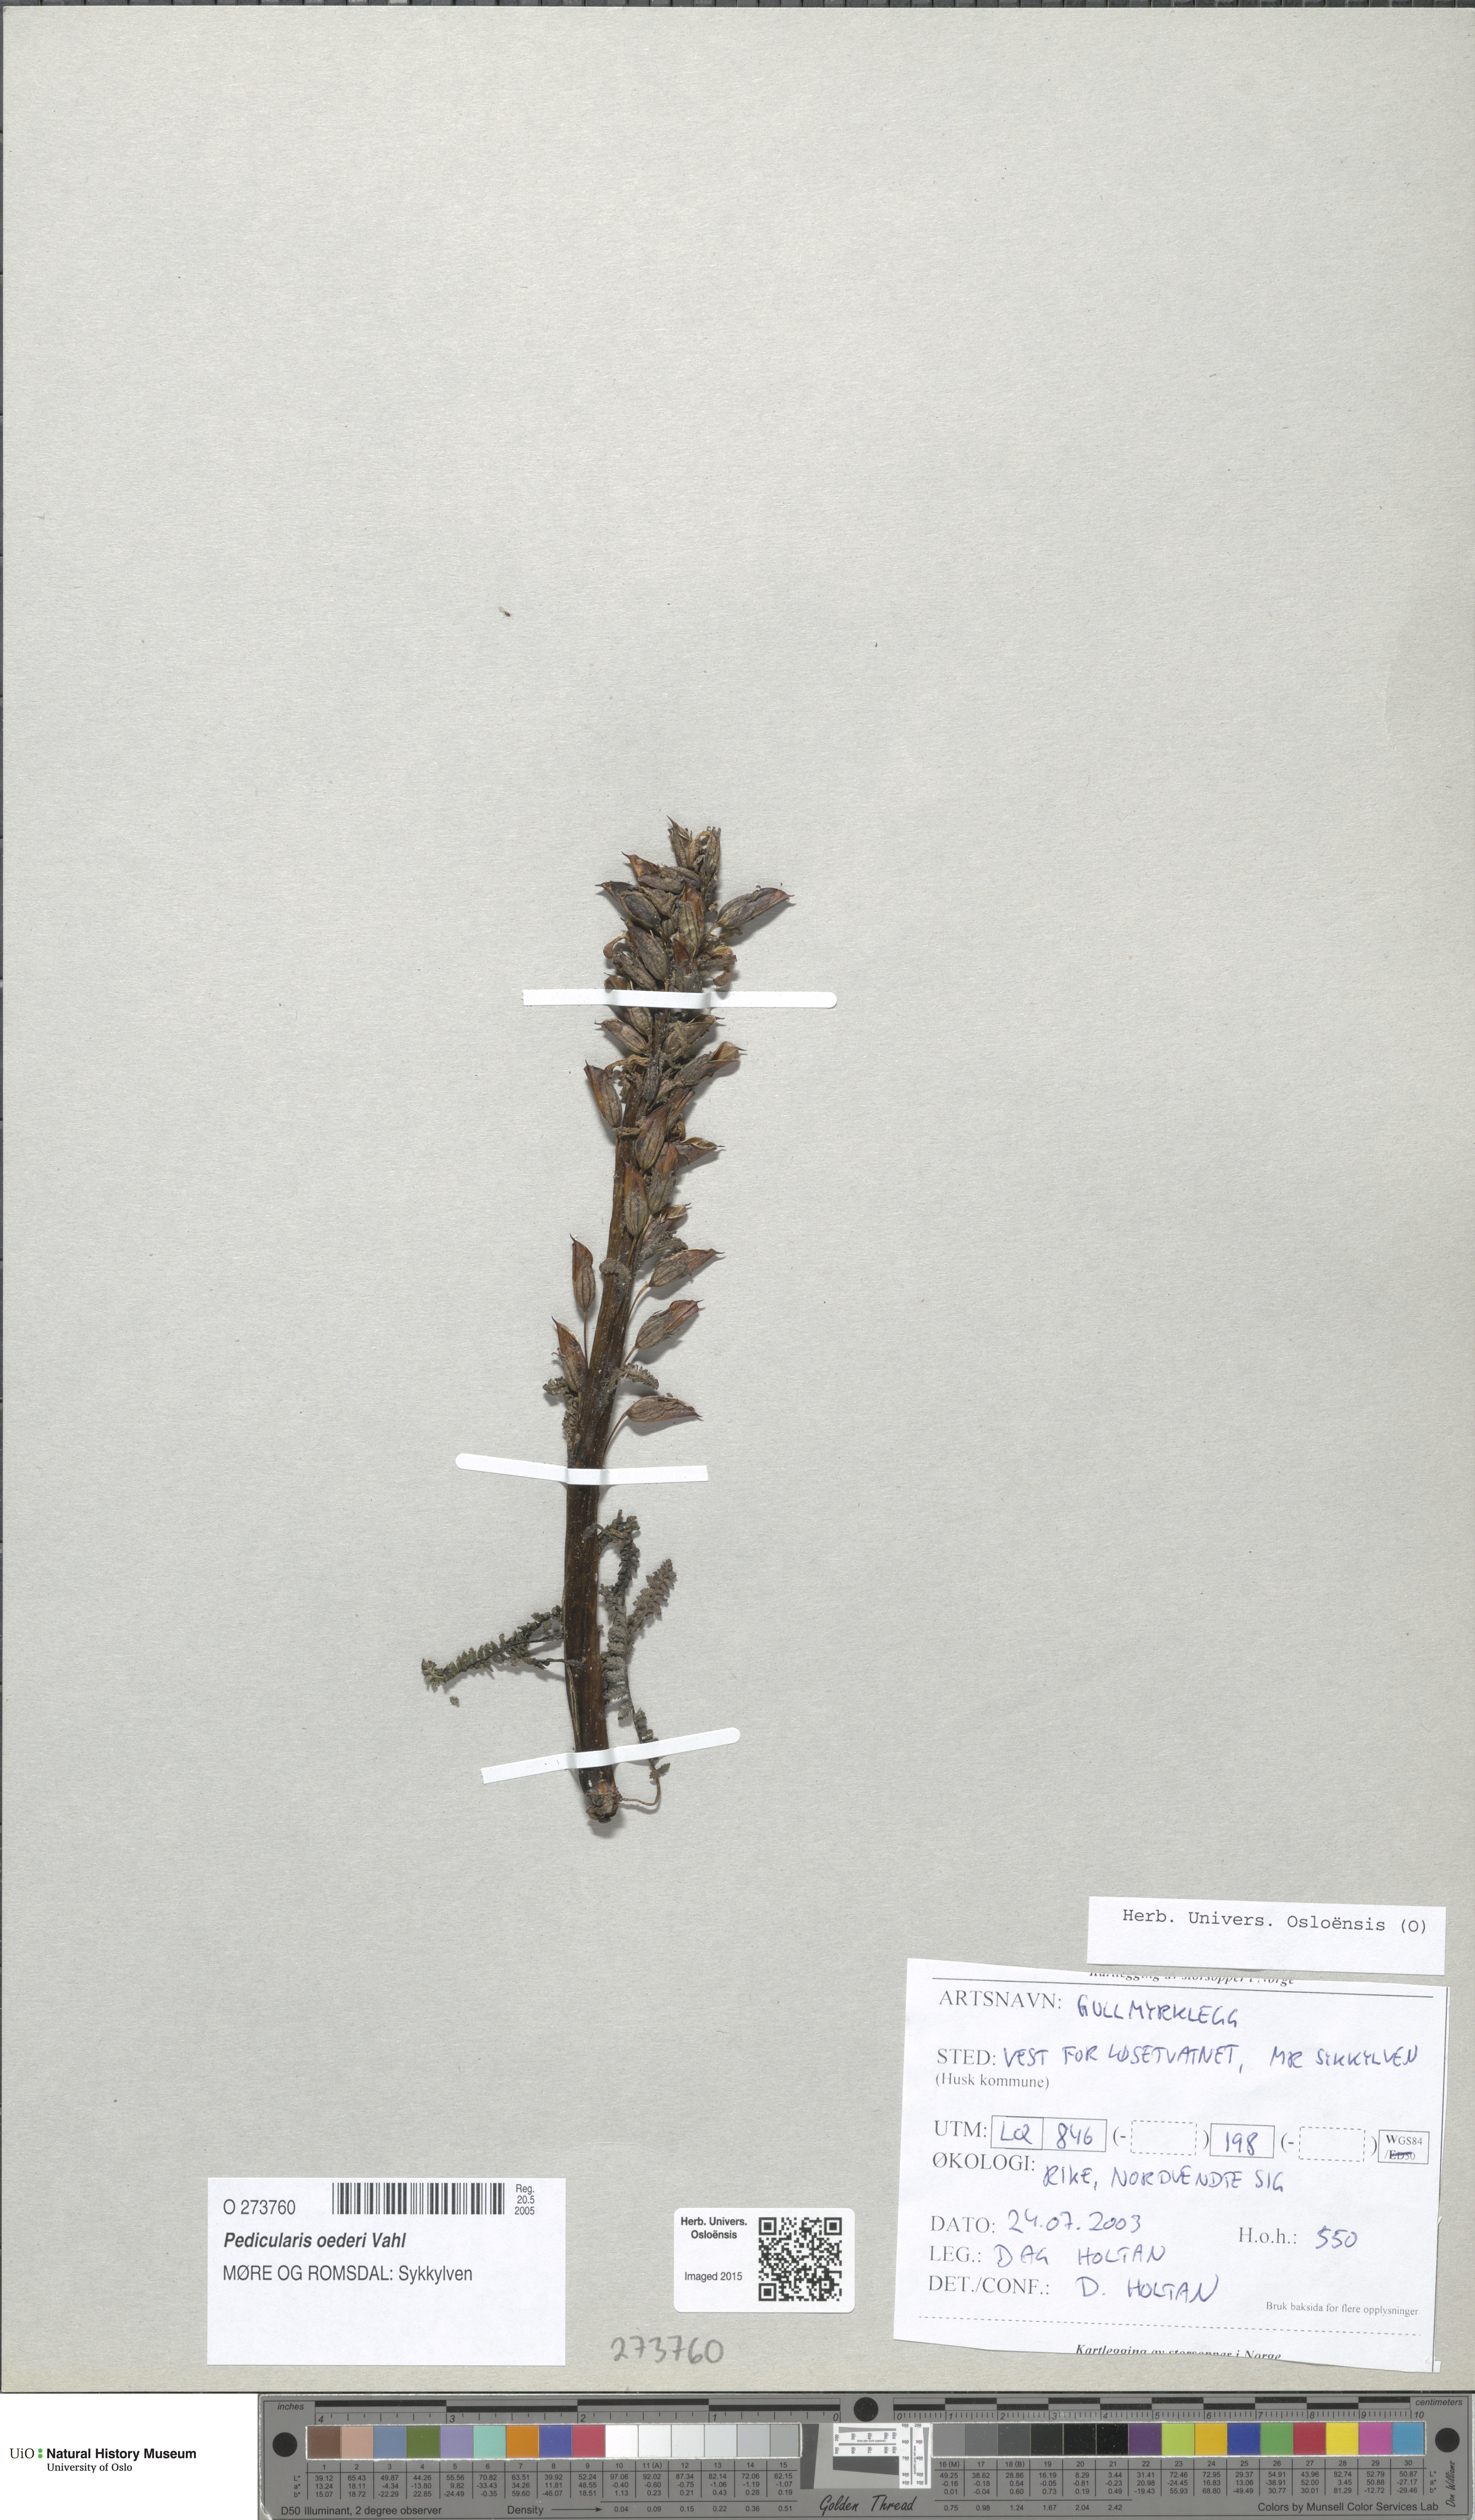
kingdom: Plantae
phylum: Tracheophyta
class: Magnoliopsida
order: Lamiales
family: Orobanchaceae
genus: Pedicularis
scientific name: Pedicularis oederi
